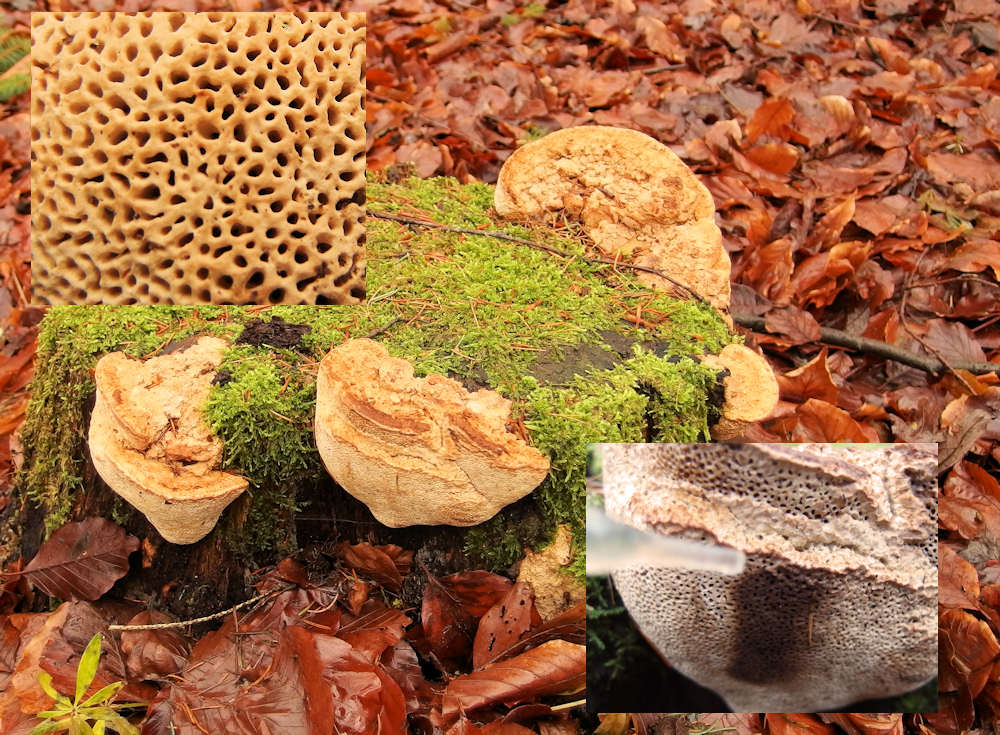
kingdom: Fungi
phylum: Basidiomycota
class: Agaricomycetes
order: Polyporales
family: Fomitopsidaceae
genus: Daedalea
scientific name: Daedalea quercina
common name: ege-labyrintsvamp
